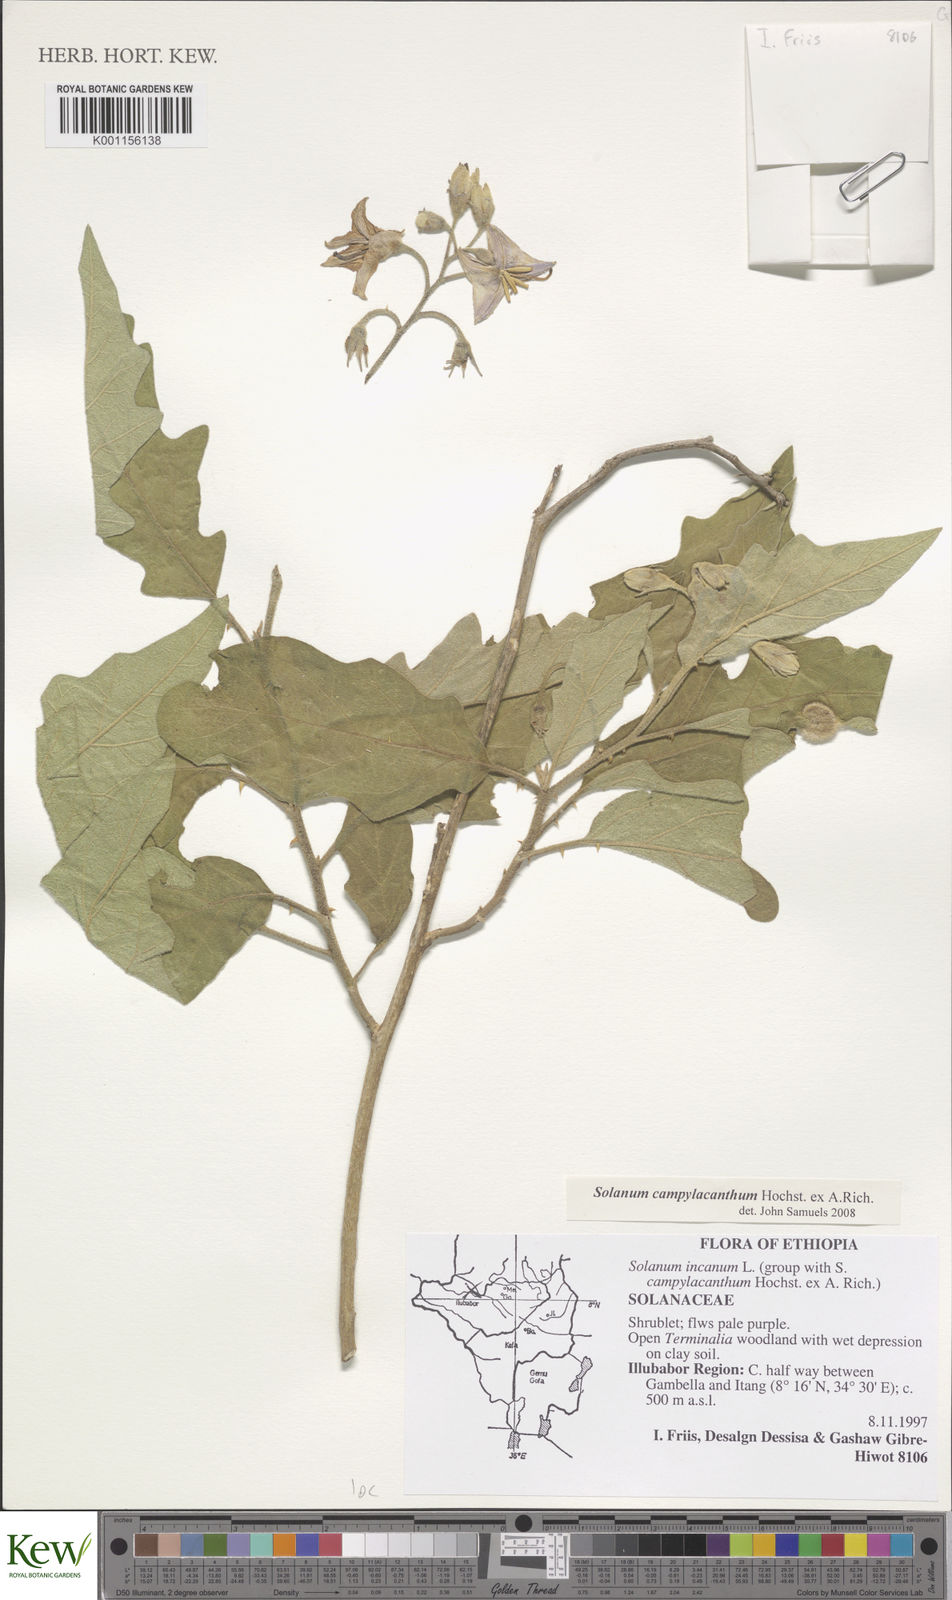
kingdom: Plantae
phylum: Tracheophyta
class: Magnoliopsida
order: Solanales
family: Solanaceae
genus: Solanum
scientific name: Solanum campylacanthum
